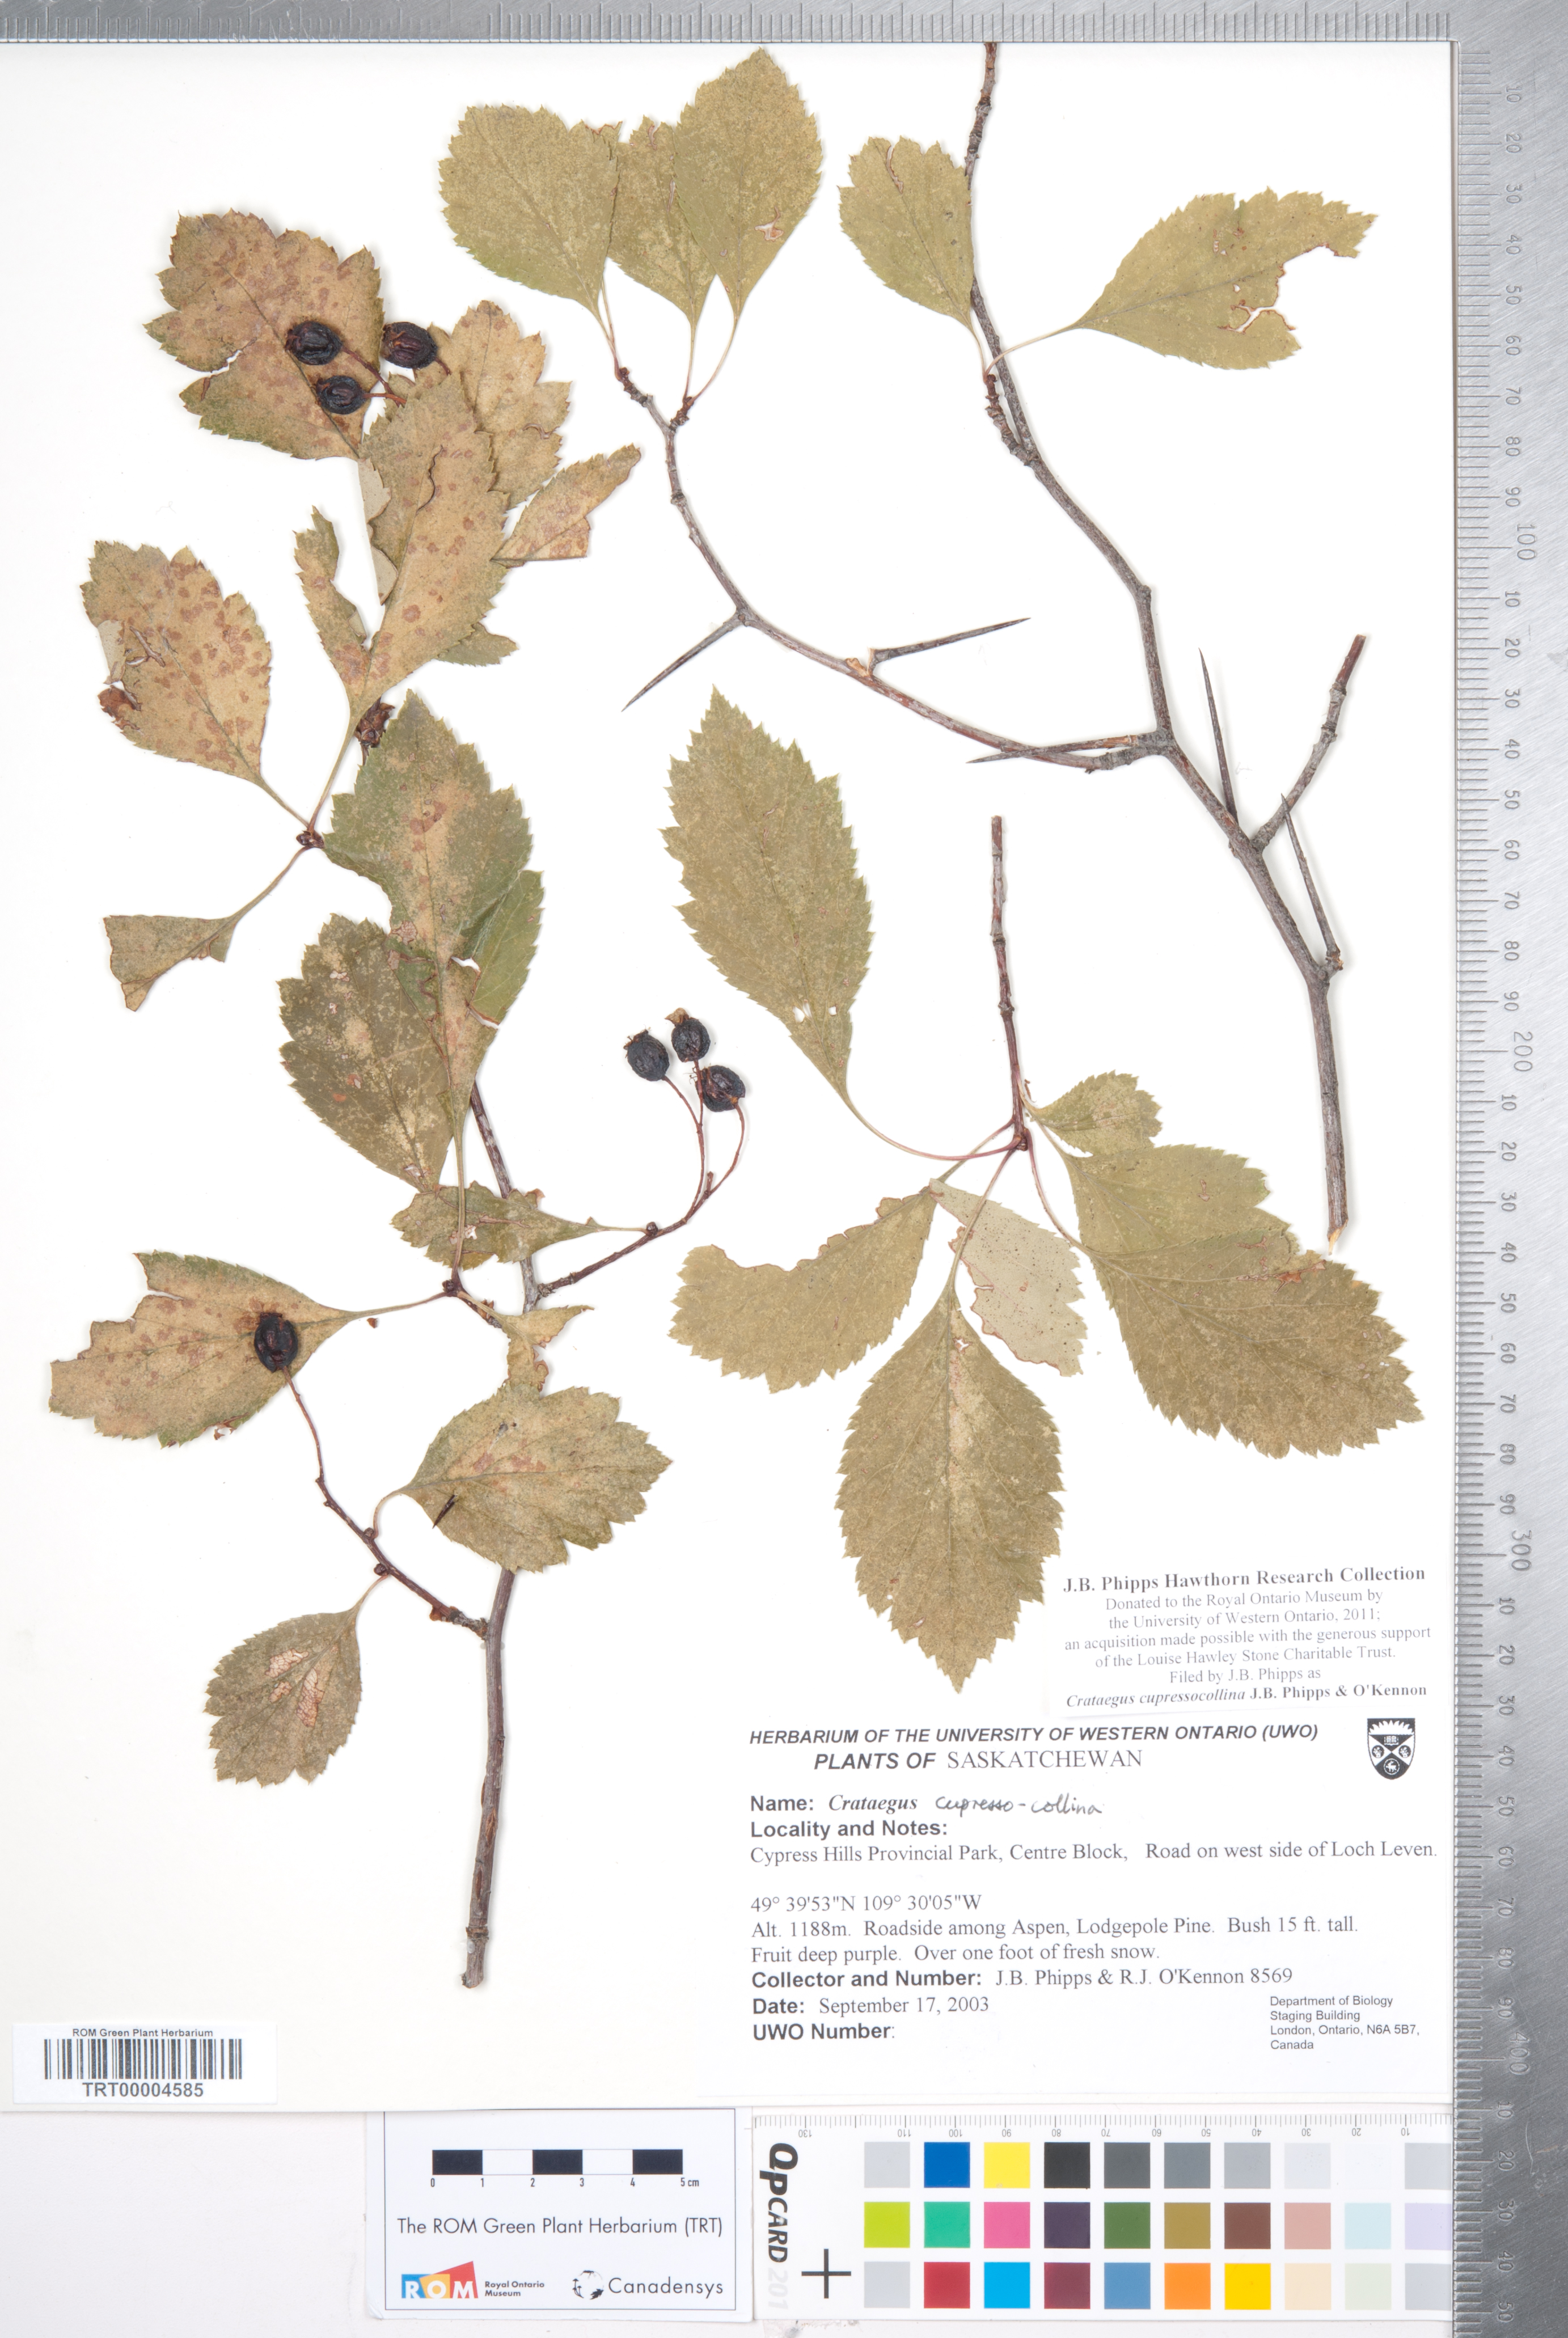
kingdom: Plantae
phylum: Tracheophyta
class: Magnoliopsida
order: Rosales
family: Rosaceae
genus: Crataegus
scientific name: Crataegus cupressocollina
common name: Cypress hills hawthorn
